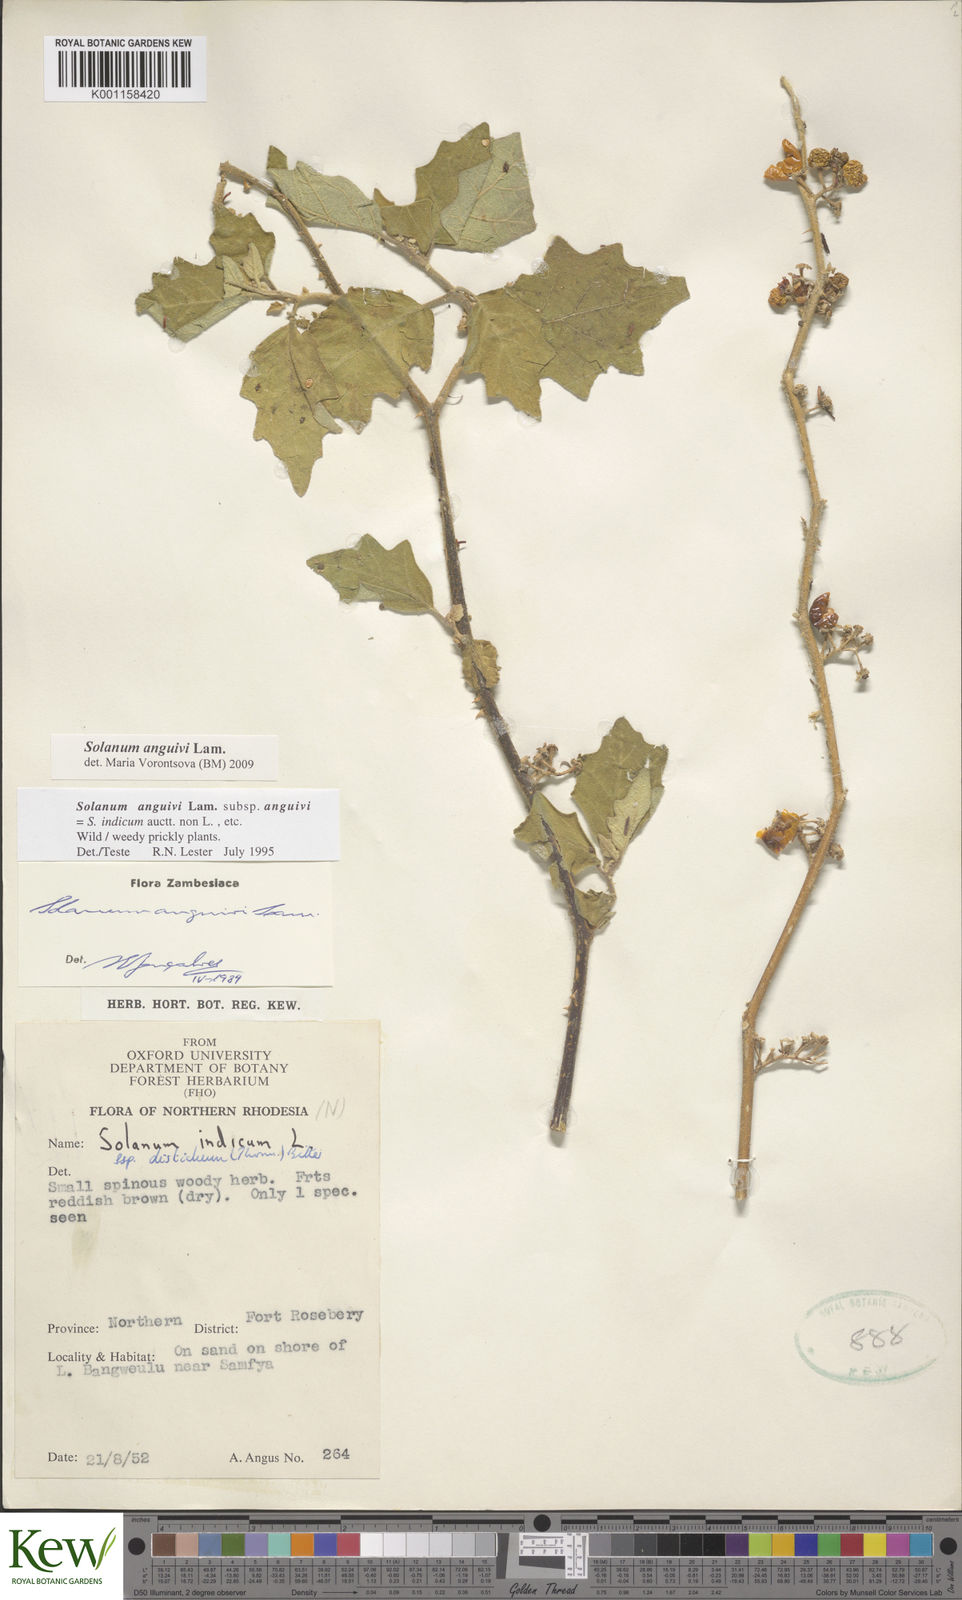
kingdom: Plantae
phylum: Tracheophyta
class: Magnoliopsida
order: Solanales
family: Solanaceae
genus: Solanum
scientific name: Solanum anguivi
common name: Forest bitterberry
